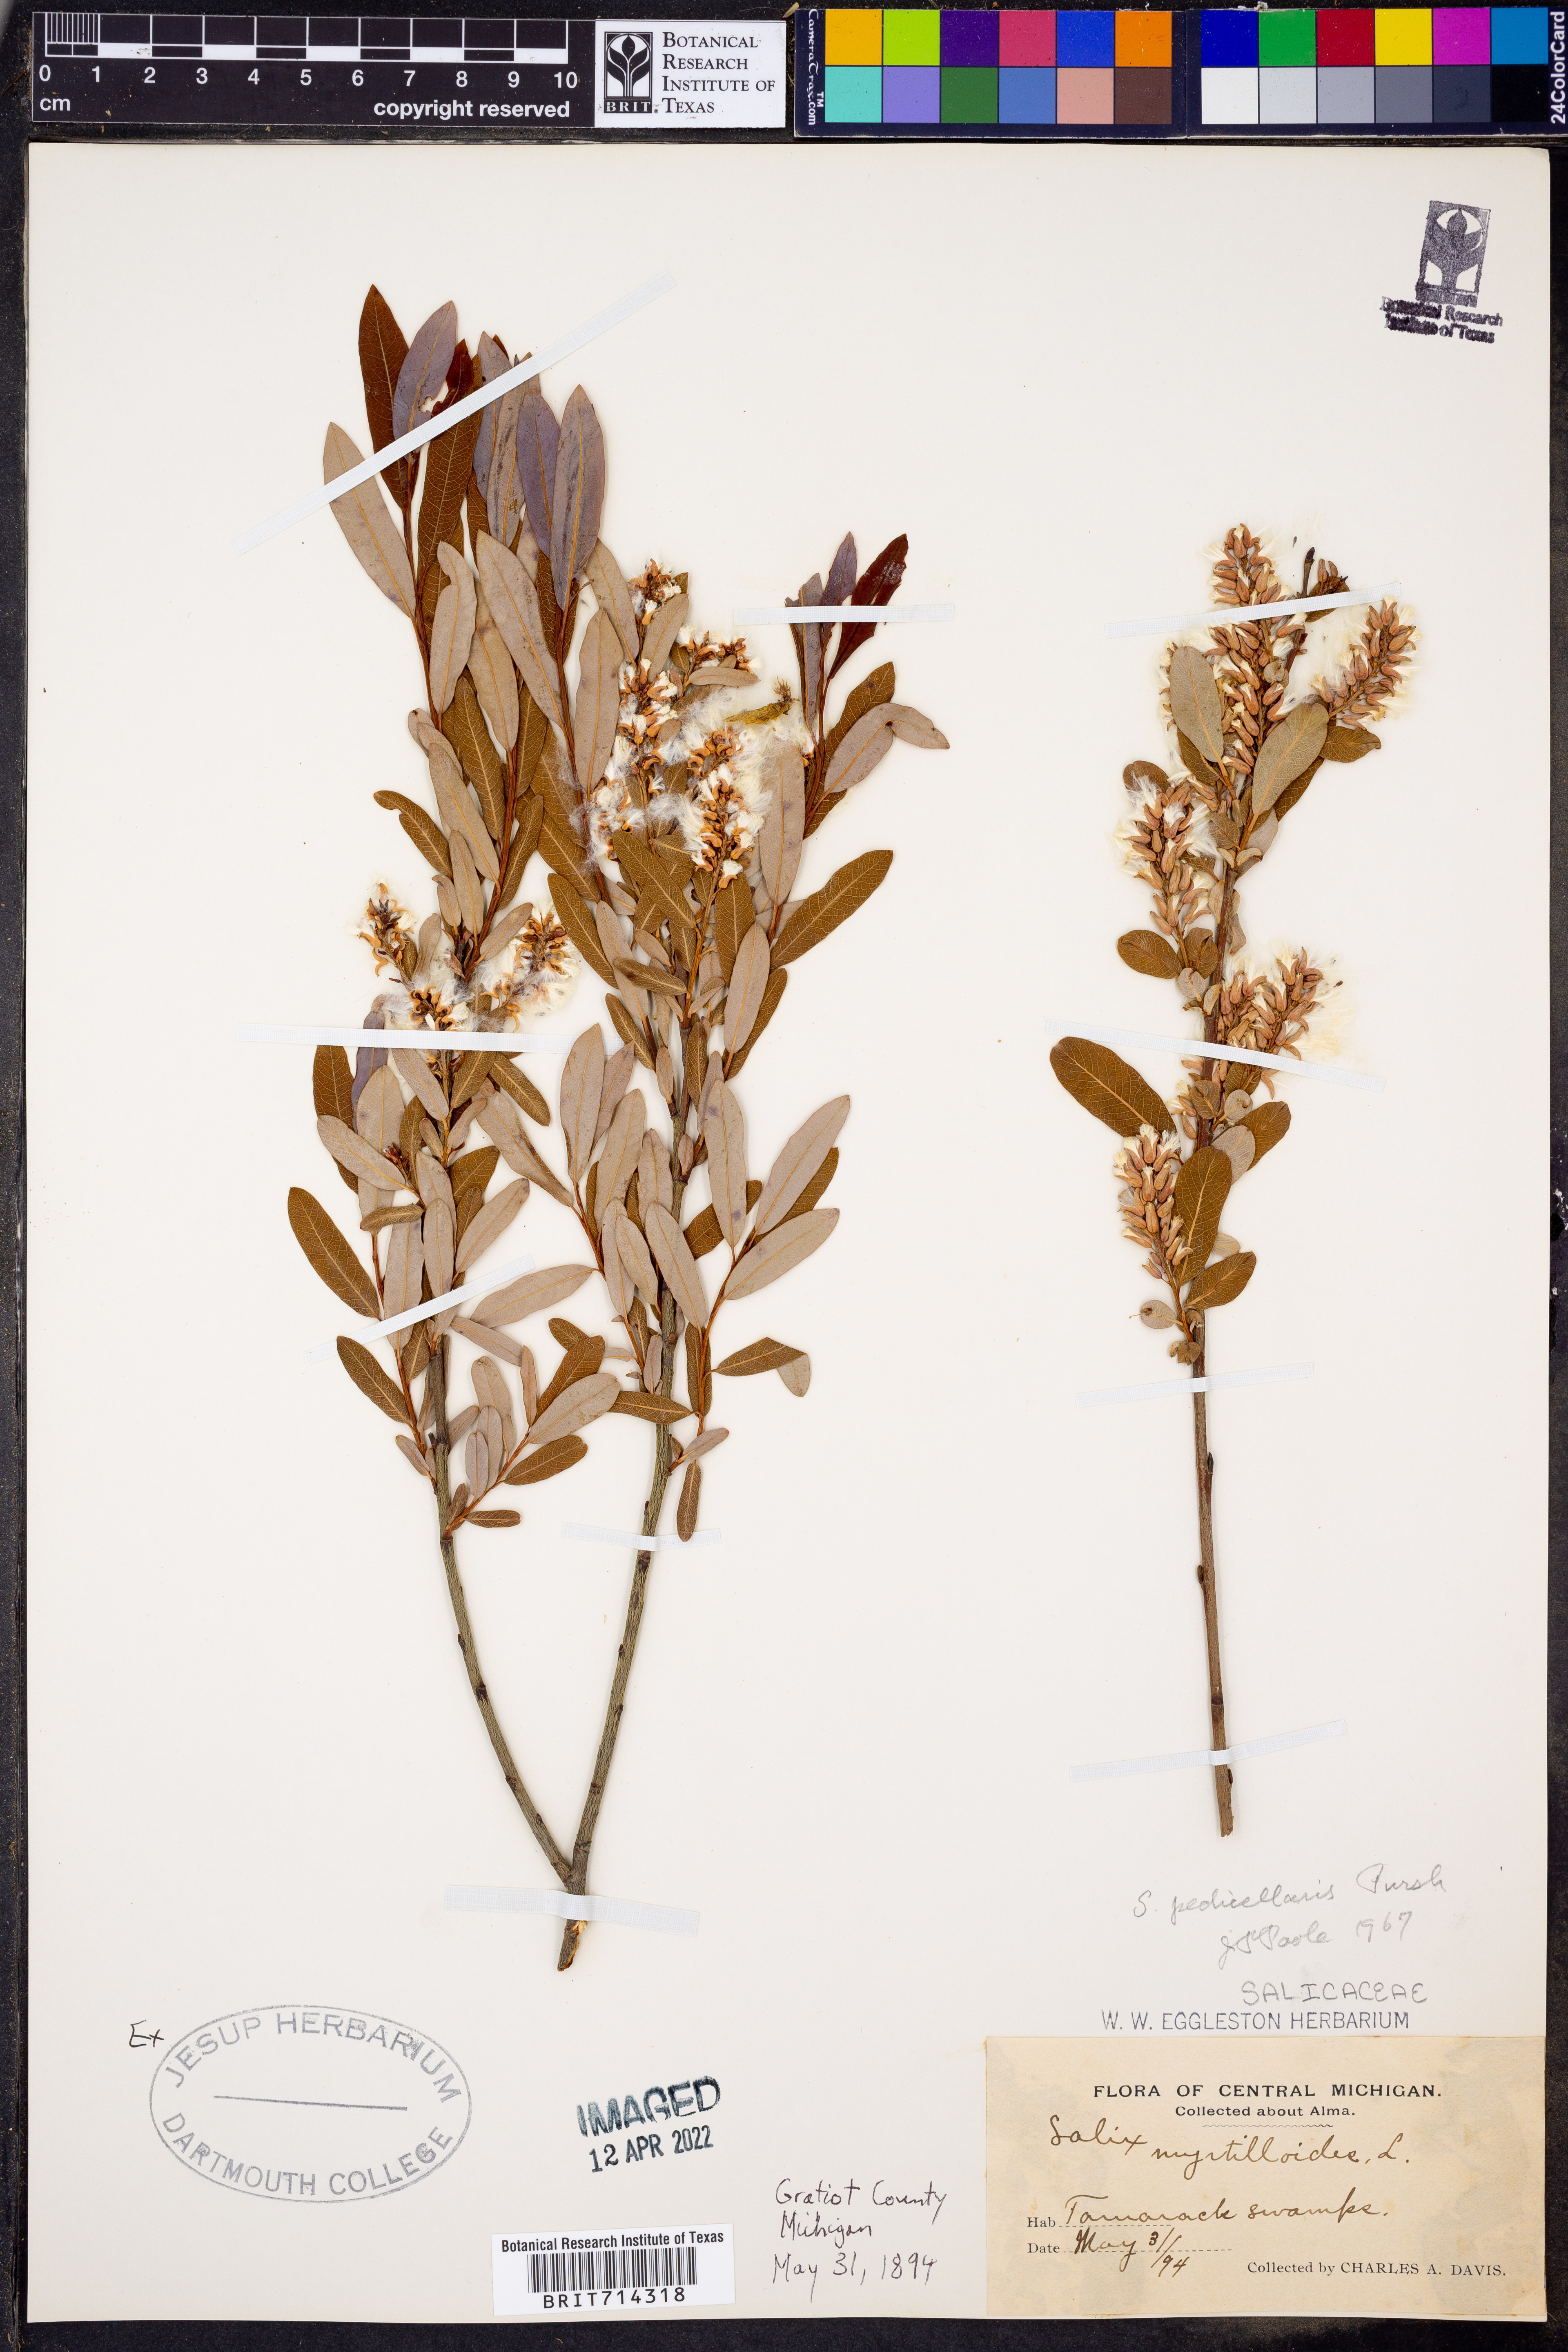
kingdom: Plantae
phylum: Tracheophyta
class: Magnoliopsida
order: Malpighiales
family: Salicaceae
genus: Salix
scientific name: Salix pedicellaris
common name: Bog willow
